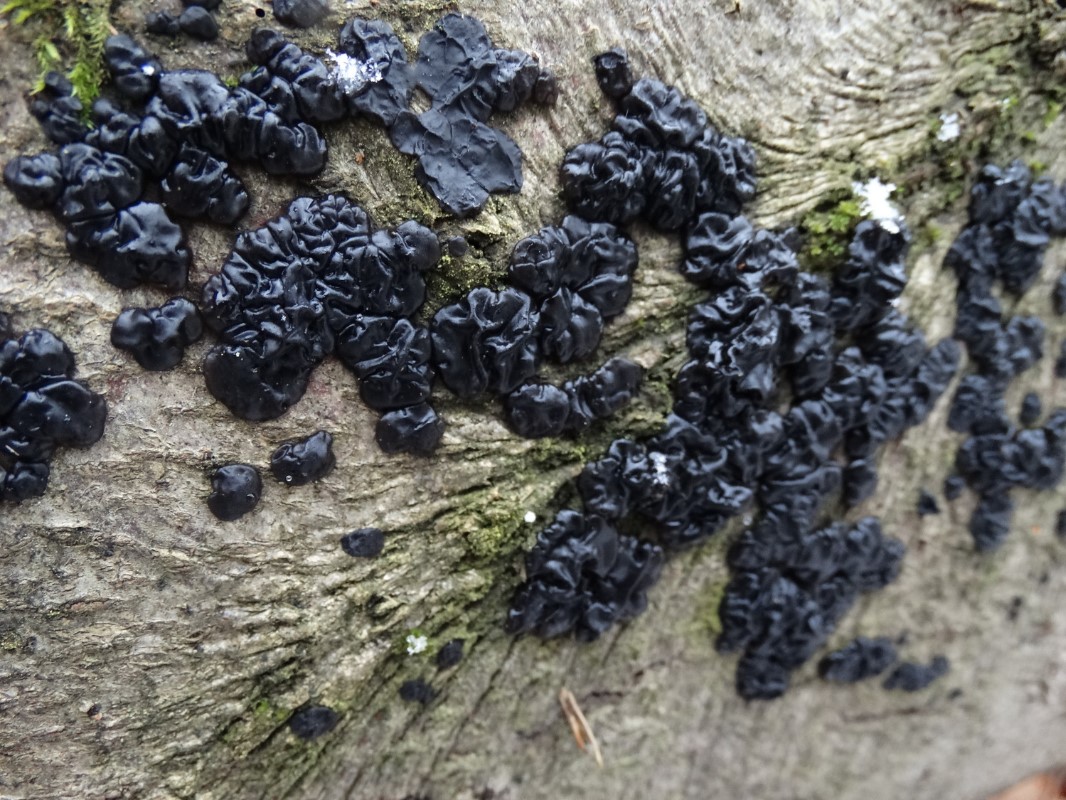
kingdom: Fungi
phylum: Basidiomycota
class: Agaricomycetes
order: Auriculariales
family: Auriculariaceae
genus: Exidia
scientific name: Exidia nigricans
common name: almindelig bævretop
